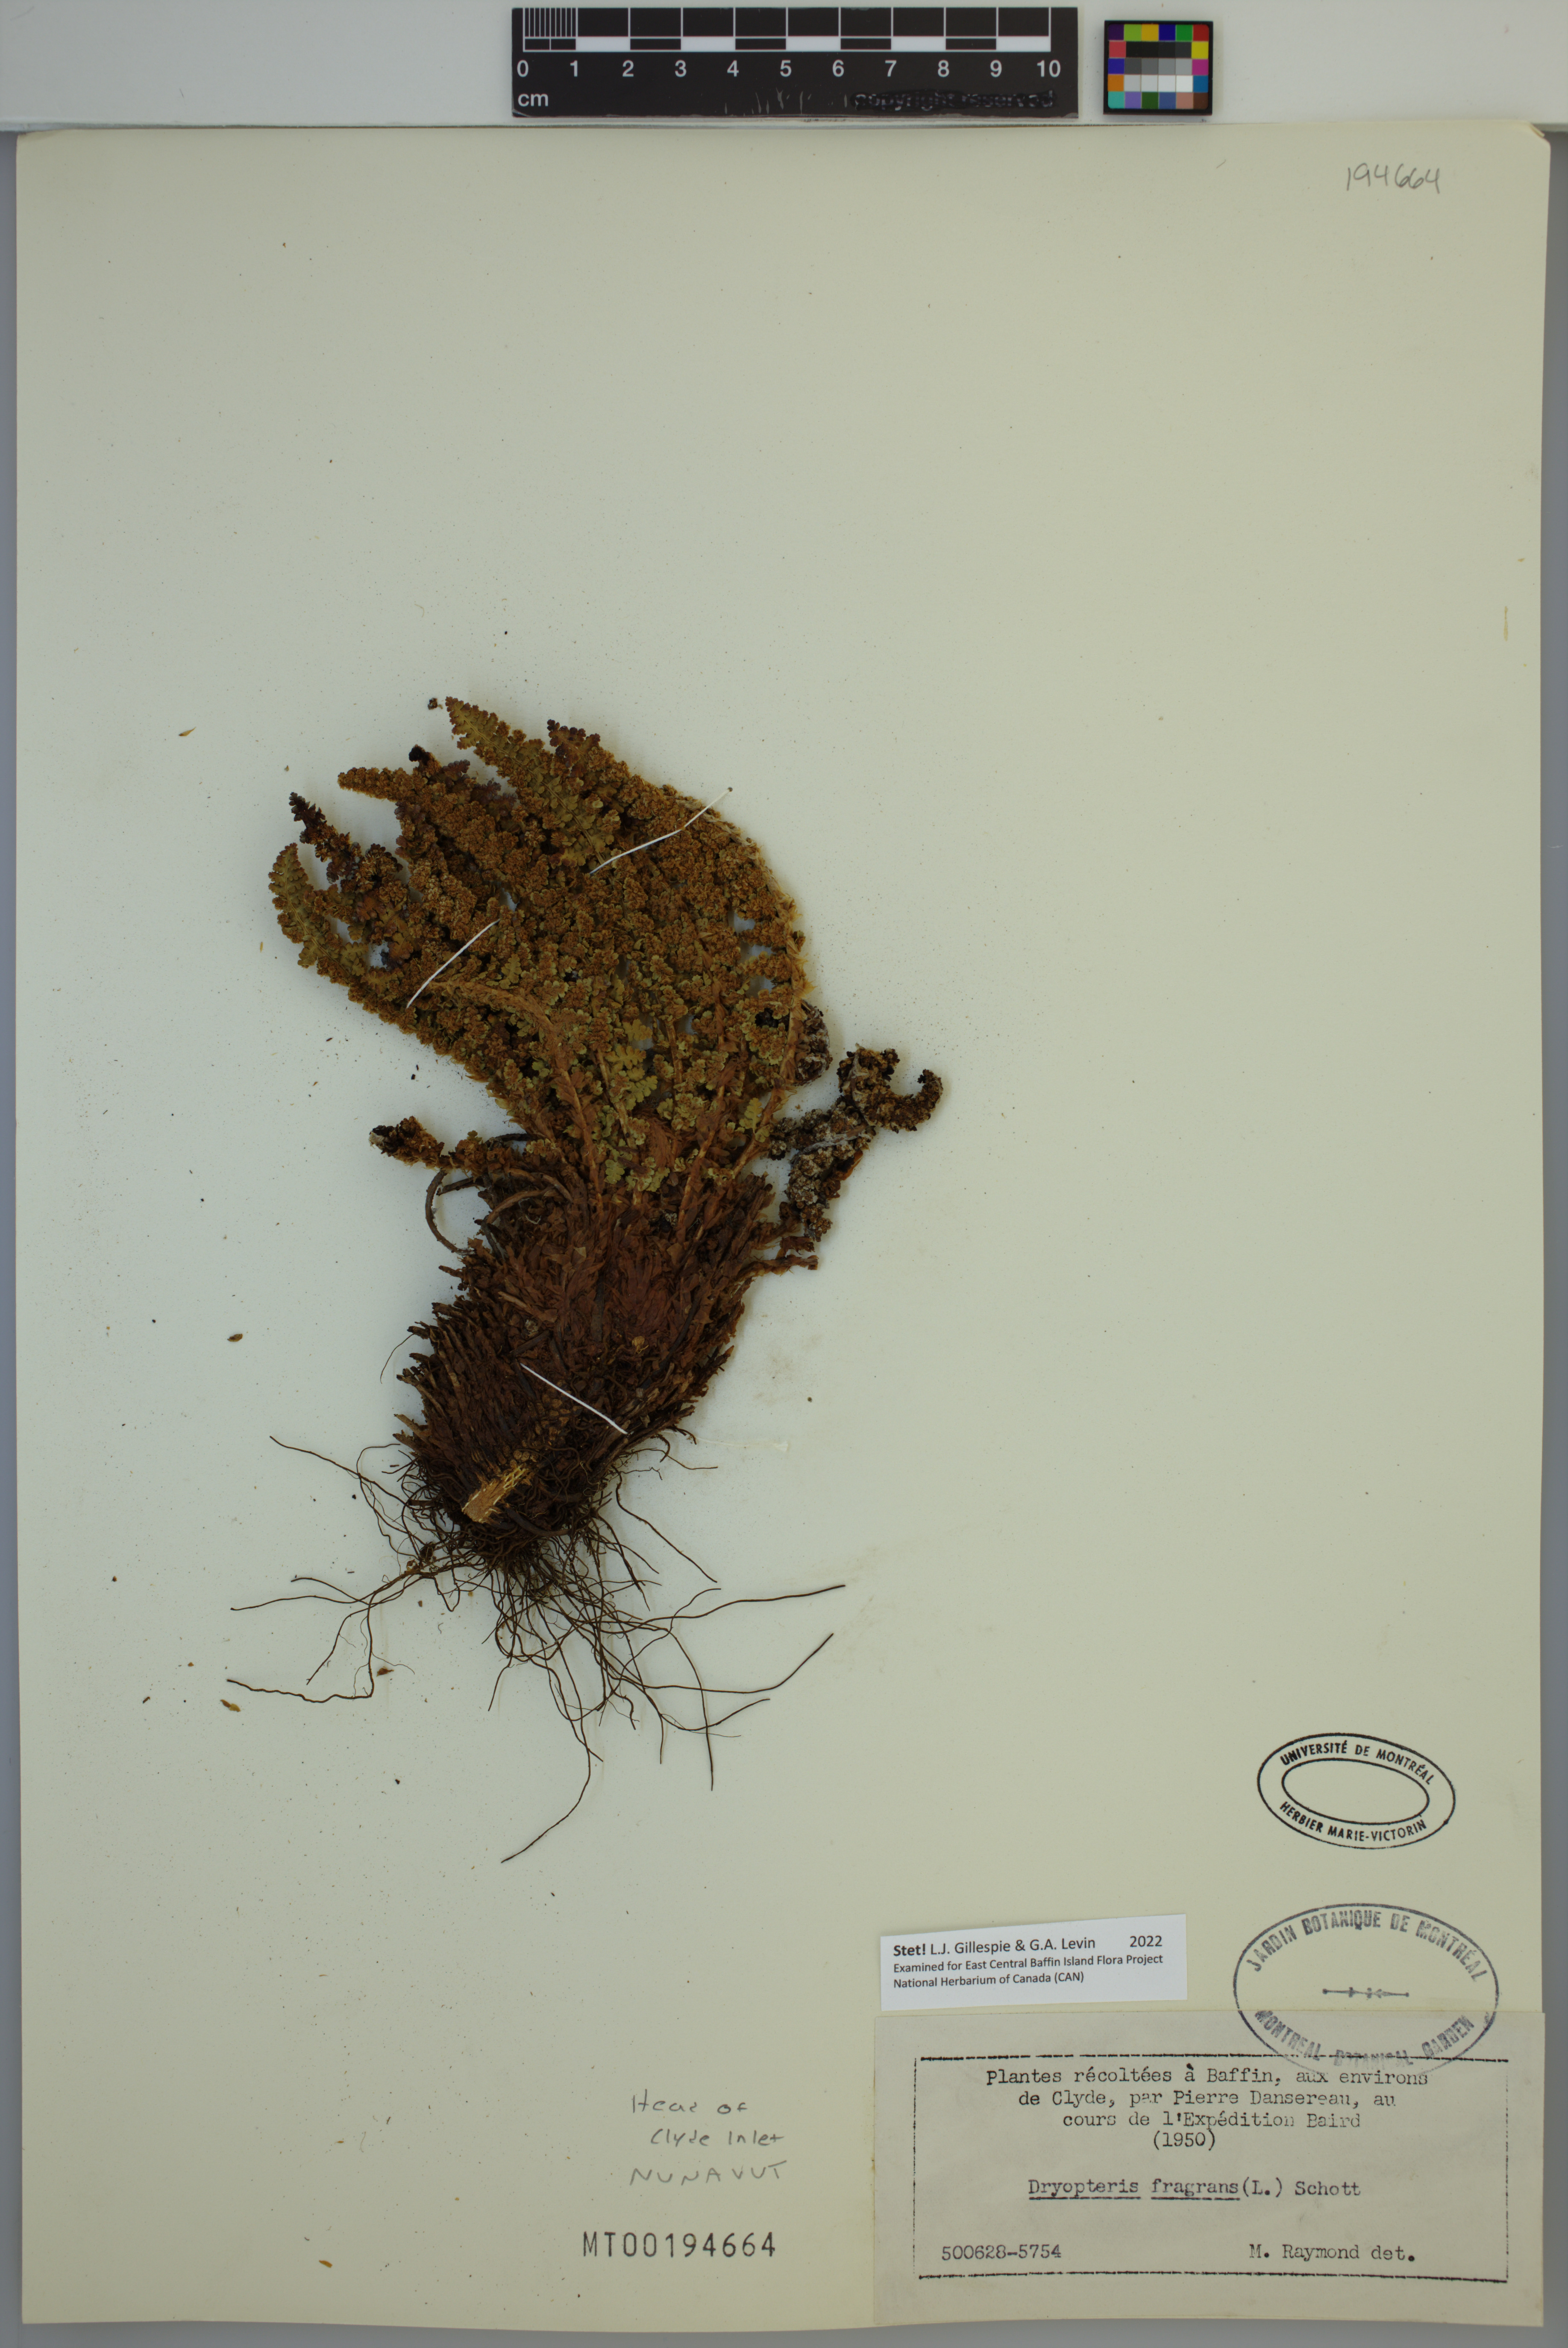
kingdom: Plantae
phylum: Tracheophyta
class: Polypodiopsida
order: Polypodiales
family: Dryopteridaceae
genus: Dryopteris
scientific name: Dryopteris fragrans
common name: Fragrant wood fern
